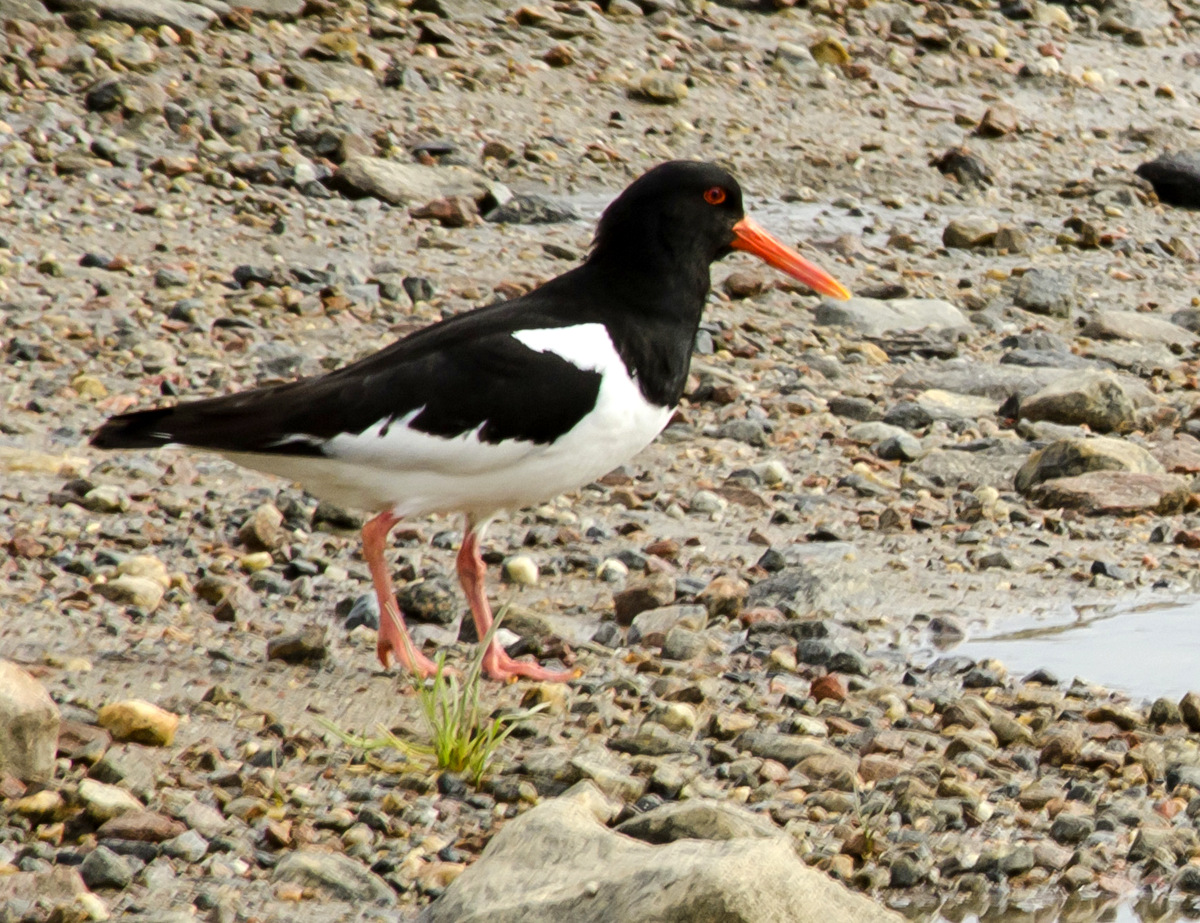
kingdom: Animalia
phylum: Chordata
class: Aves
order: Charadriiformes
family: Haematopodidae
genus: Haematopus
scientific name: Haematopus ostralegus
